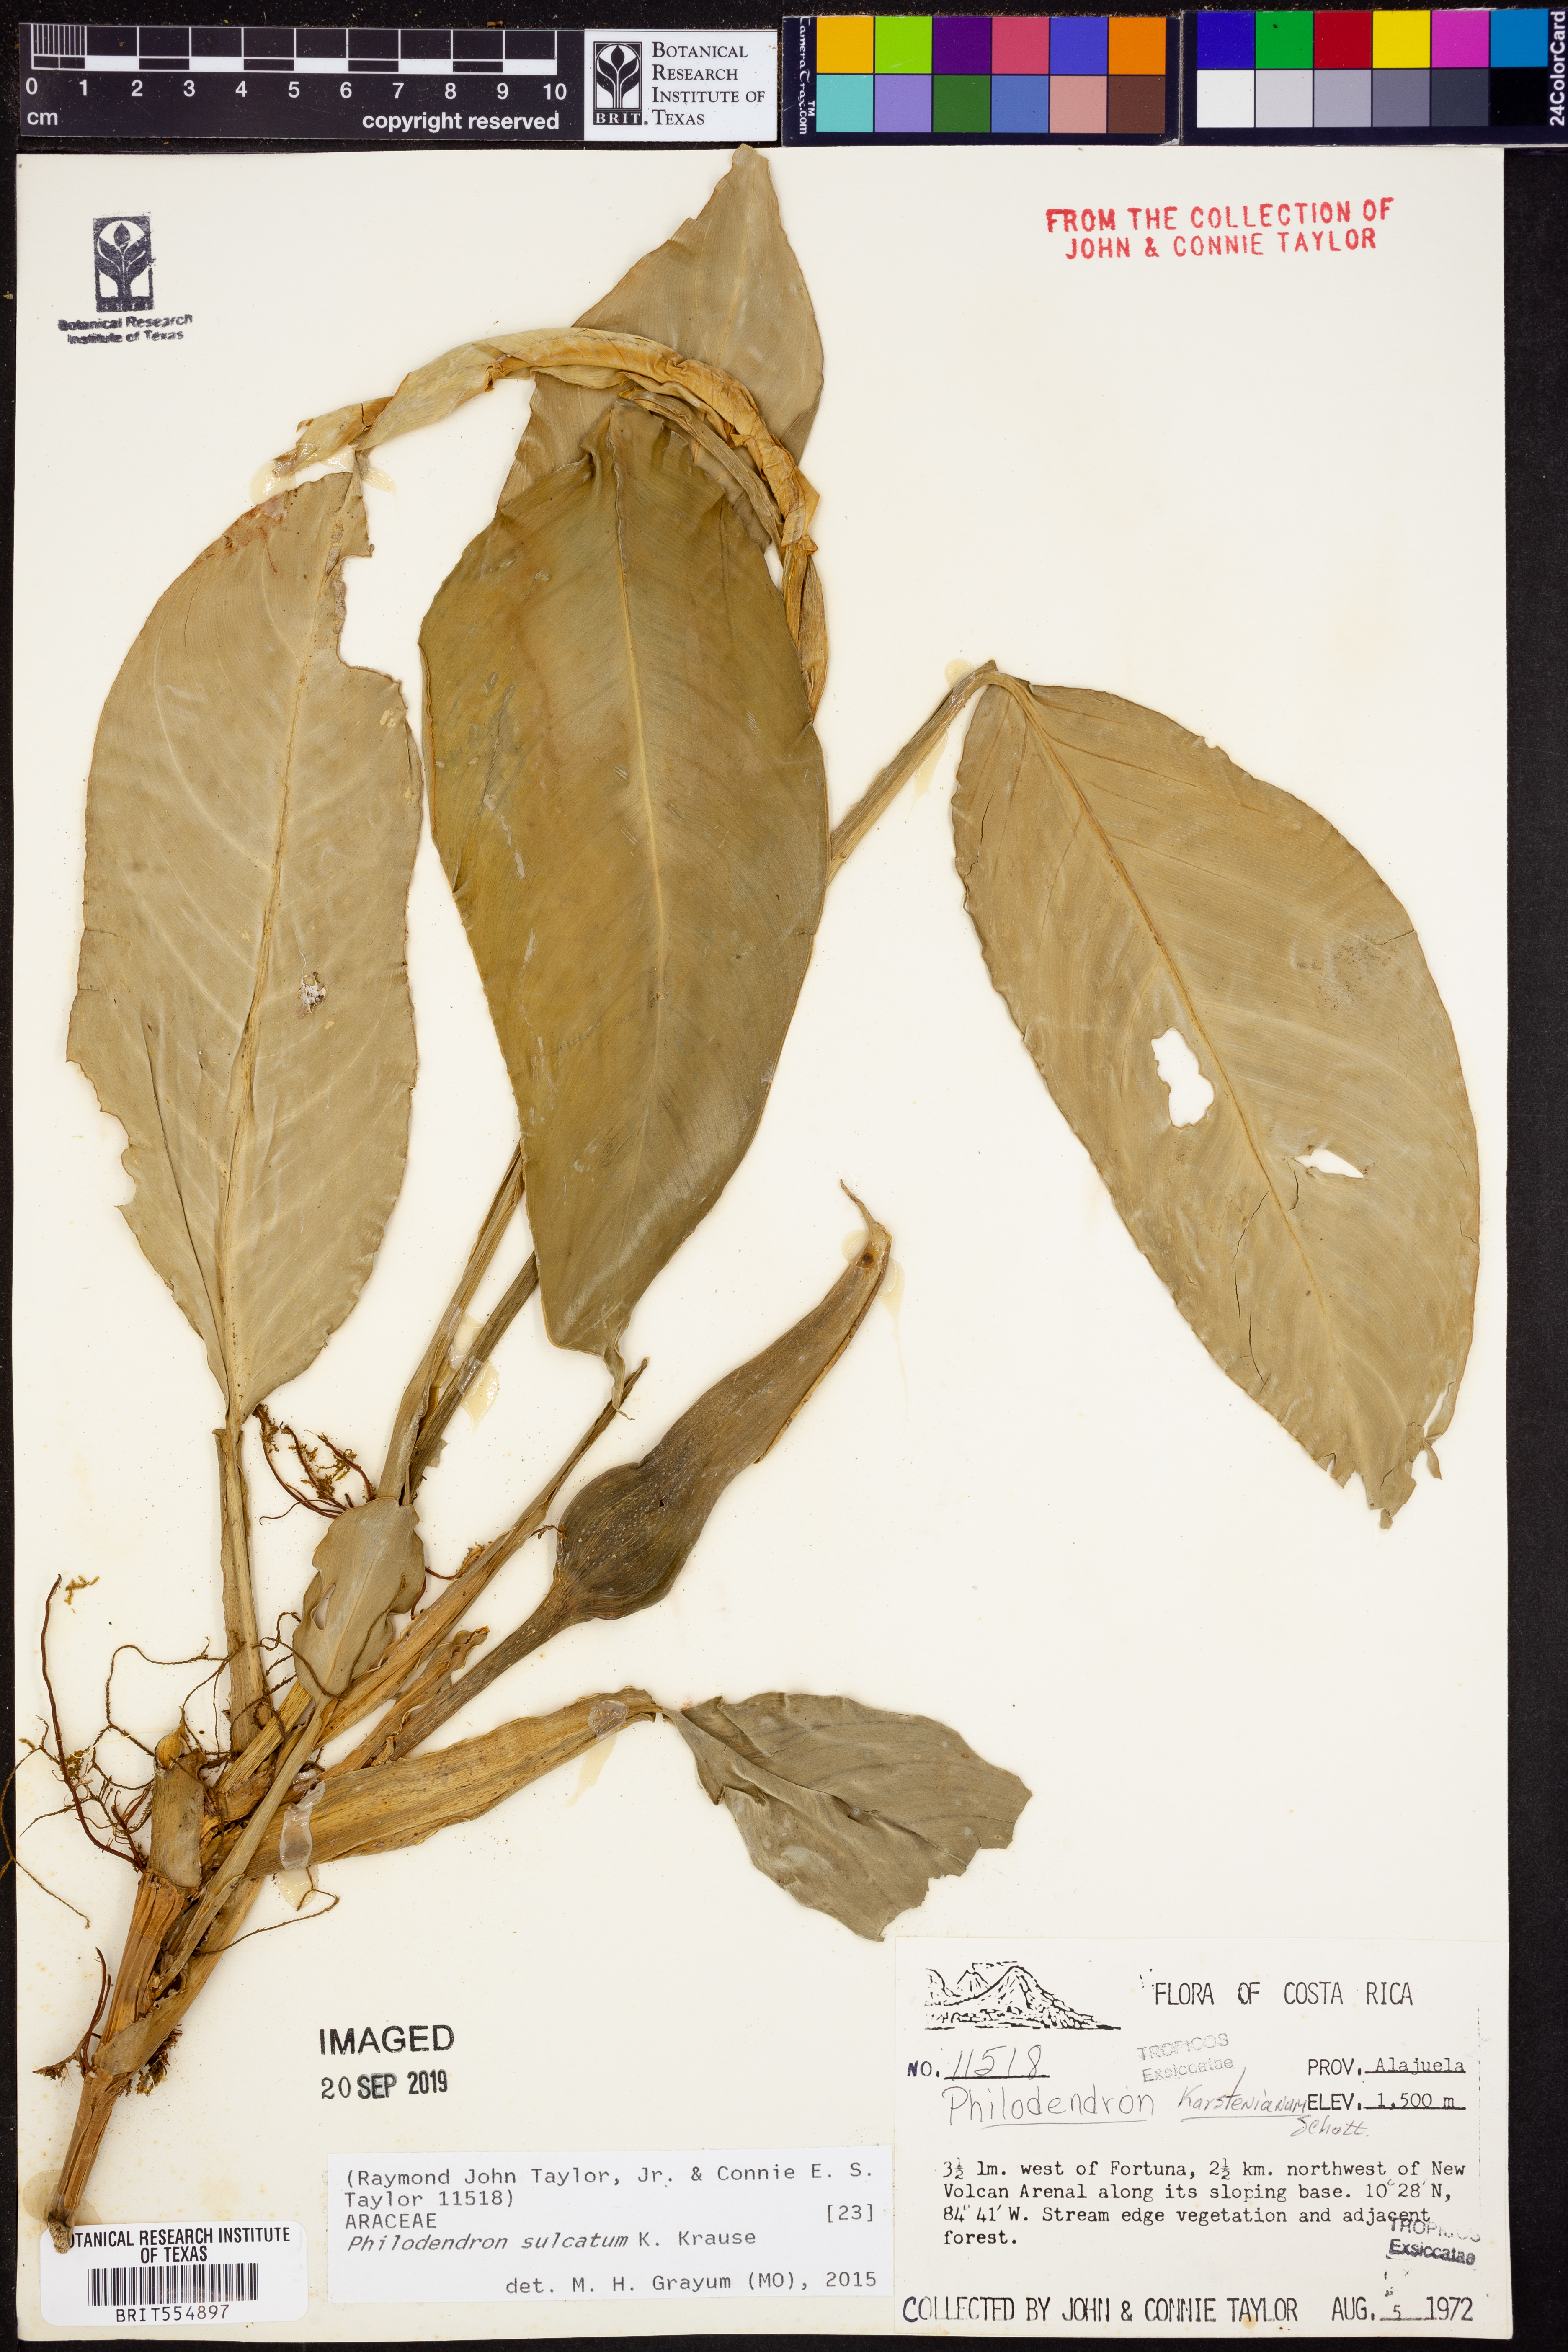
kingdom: Plantae
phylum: Tracheophyta
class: Liliopsida
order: Alismatales
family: Araceae
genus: Philodendron
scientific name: Philodendron sulcatum
